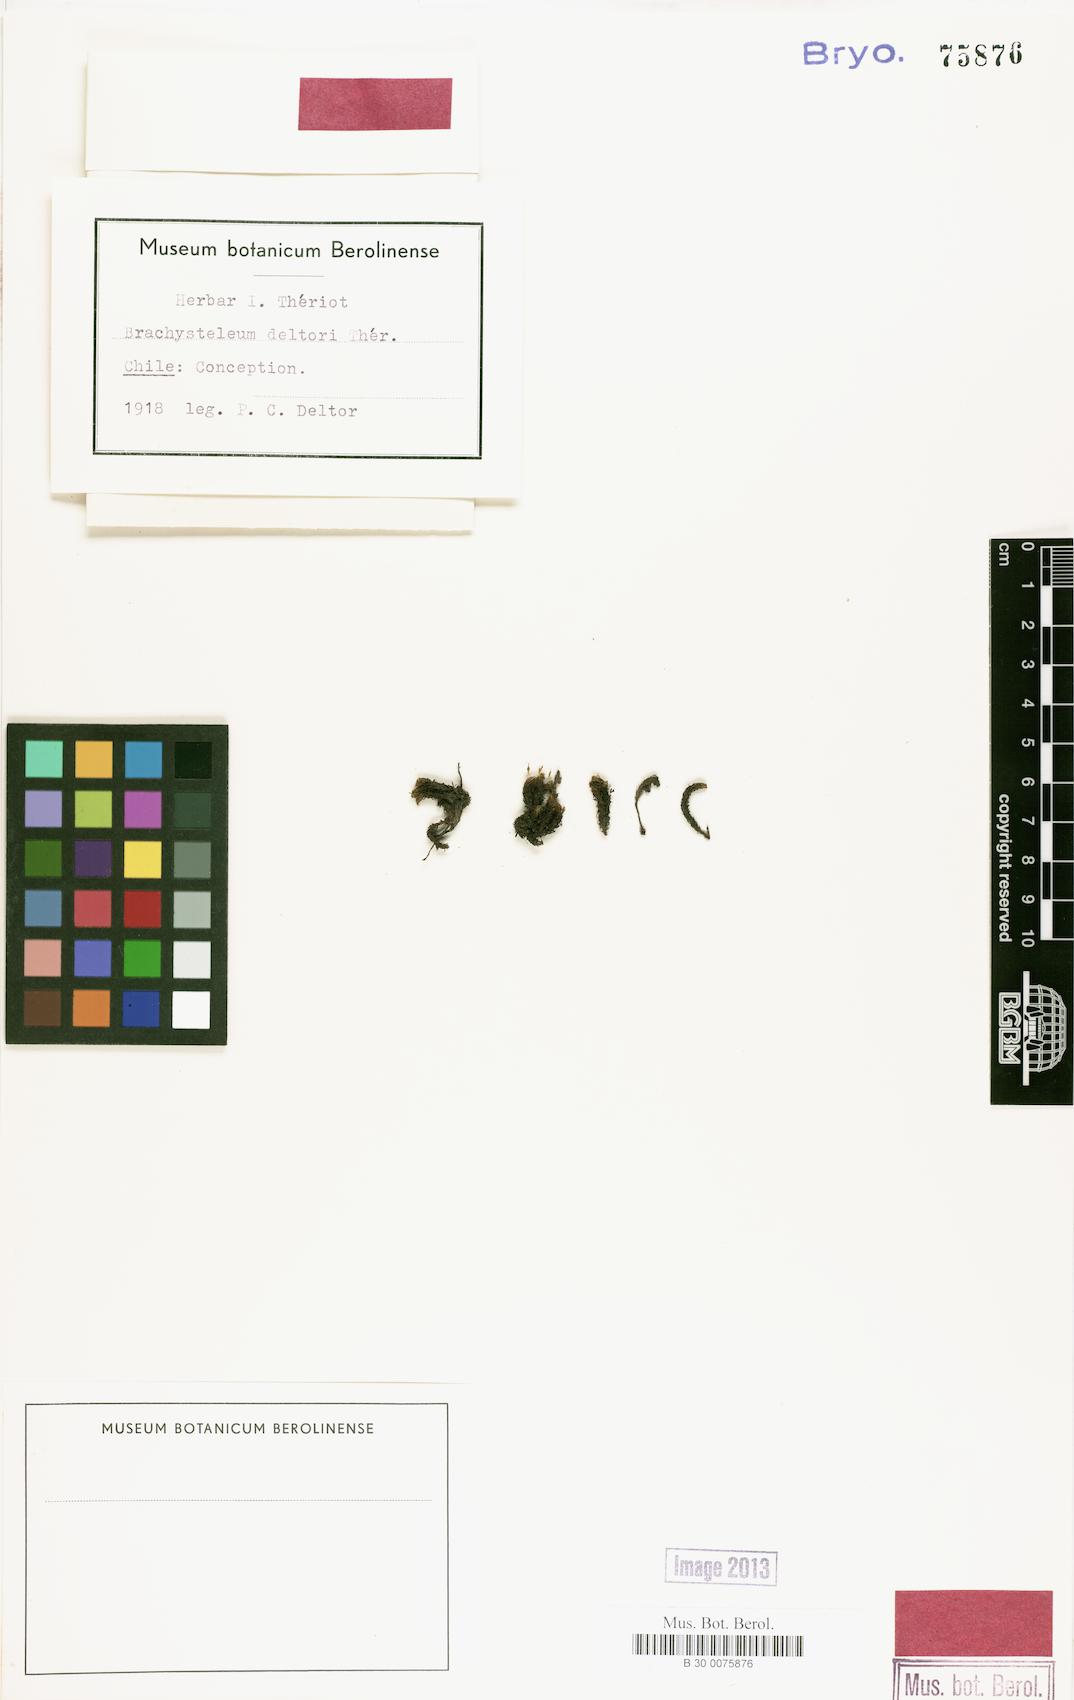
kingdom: Plantae
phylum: Bryophyta
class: Bryopsida
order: Grimmiales
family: Ptychomitriaceae
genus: Ptychomitrium
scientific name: Ptychomitrium deltorii
